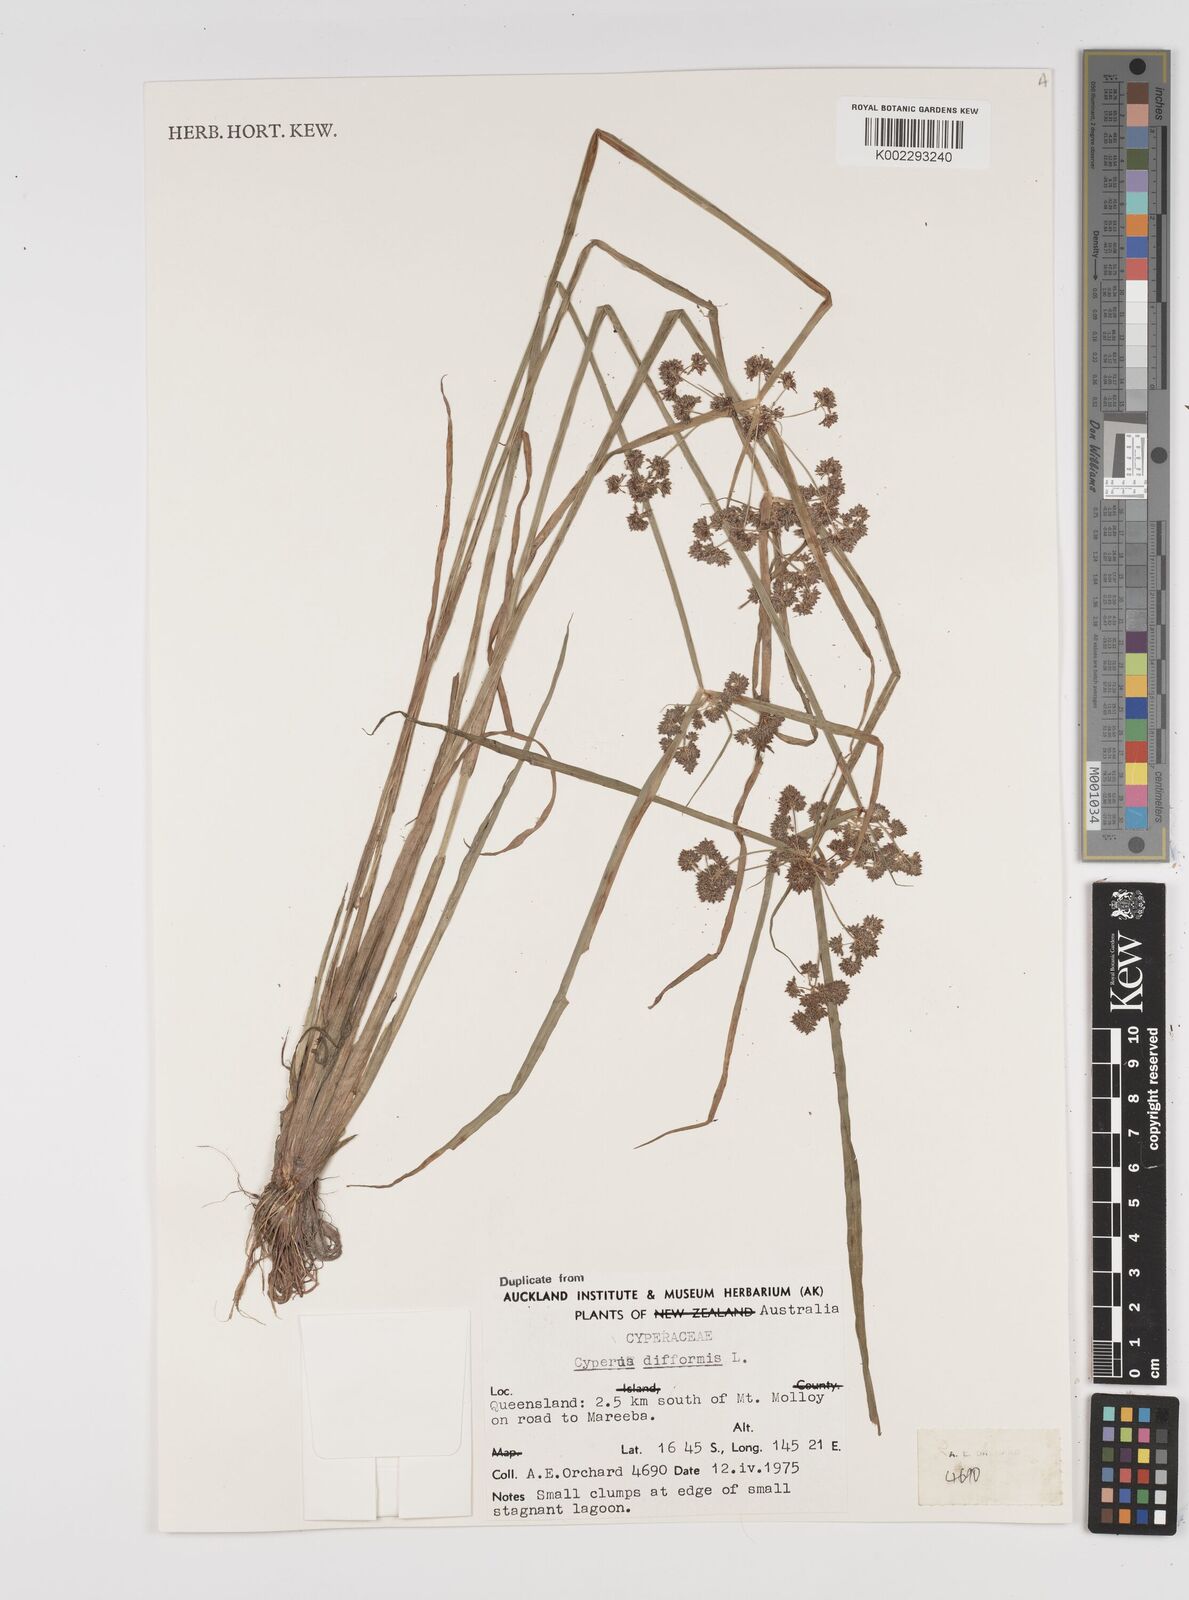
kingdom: Plantae
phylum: Tracheophyta
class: Liliopsida
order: Poales
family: Cyperaceae
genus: Cyperus
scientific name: Cyperus difformis
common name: Variable flatsedge
